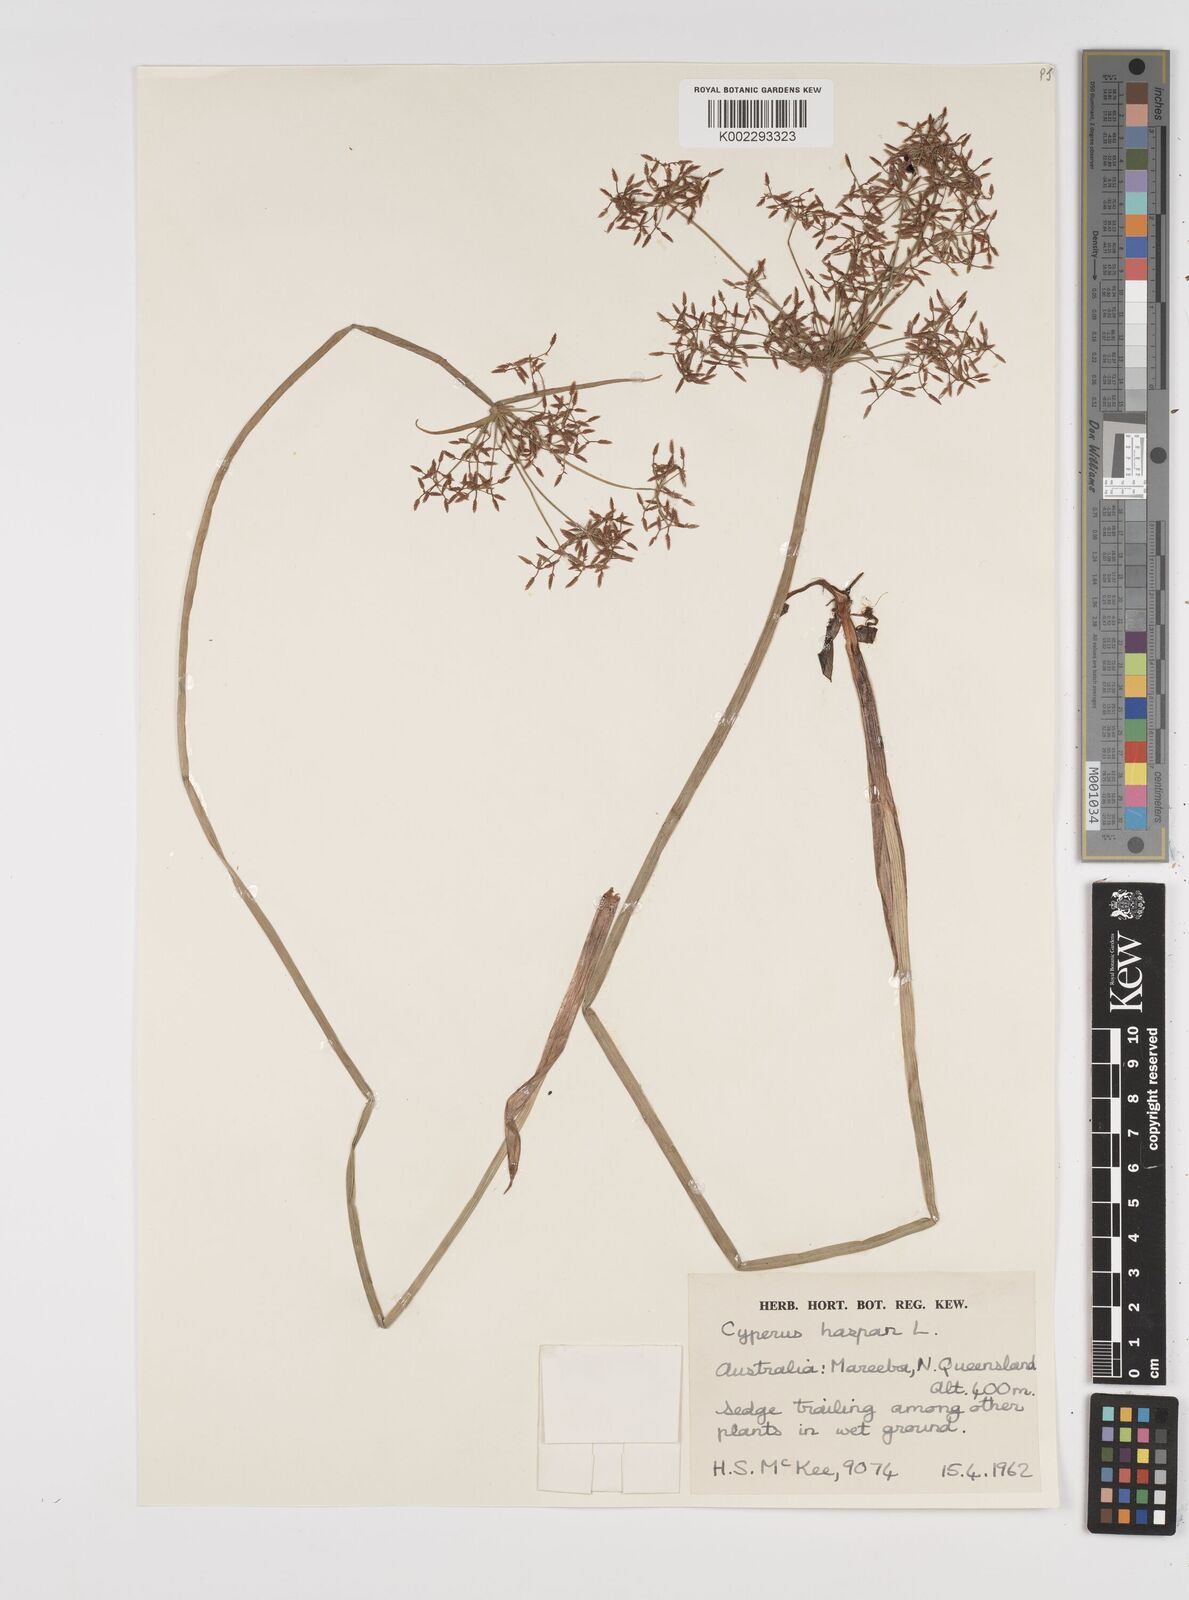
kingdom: Plantae
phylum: Tracheophyta
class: Liliopsida
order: Poales
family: Cyperaceae
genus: Cyperus
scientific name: Cyperus haspan
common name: Haspan flatsedge
